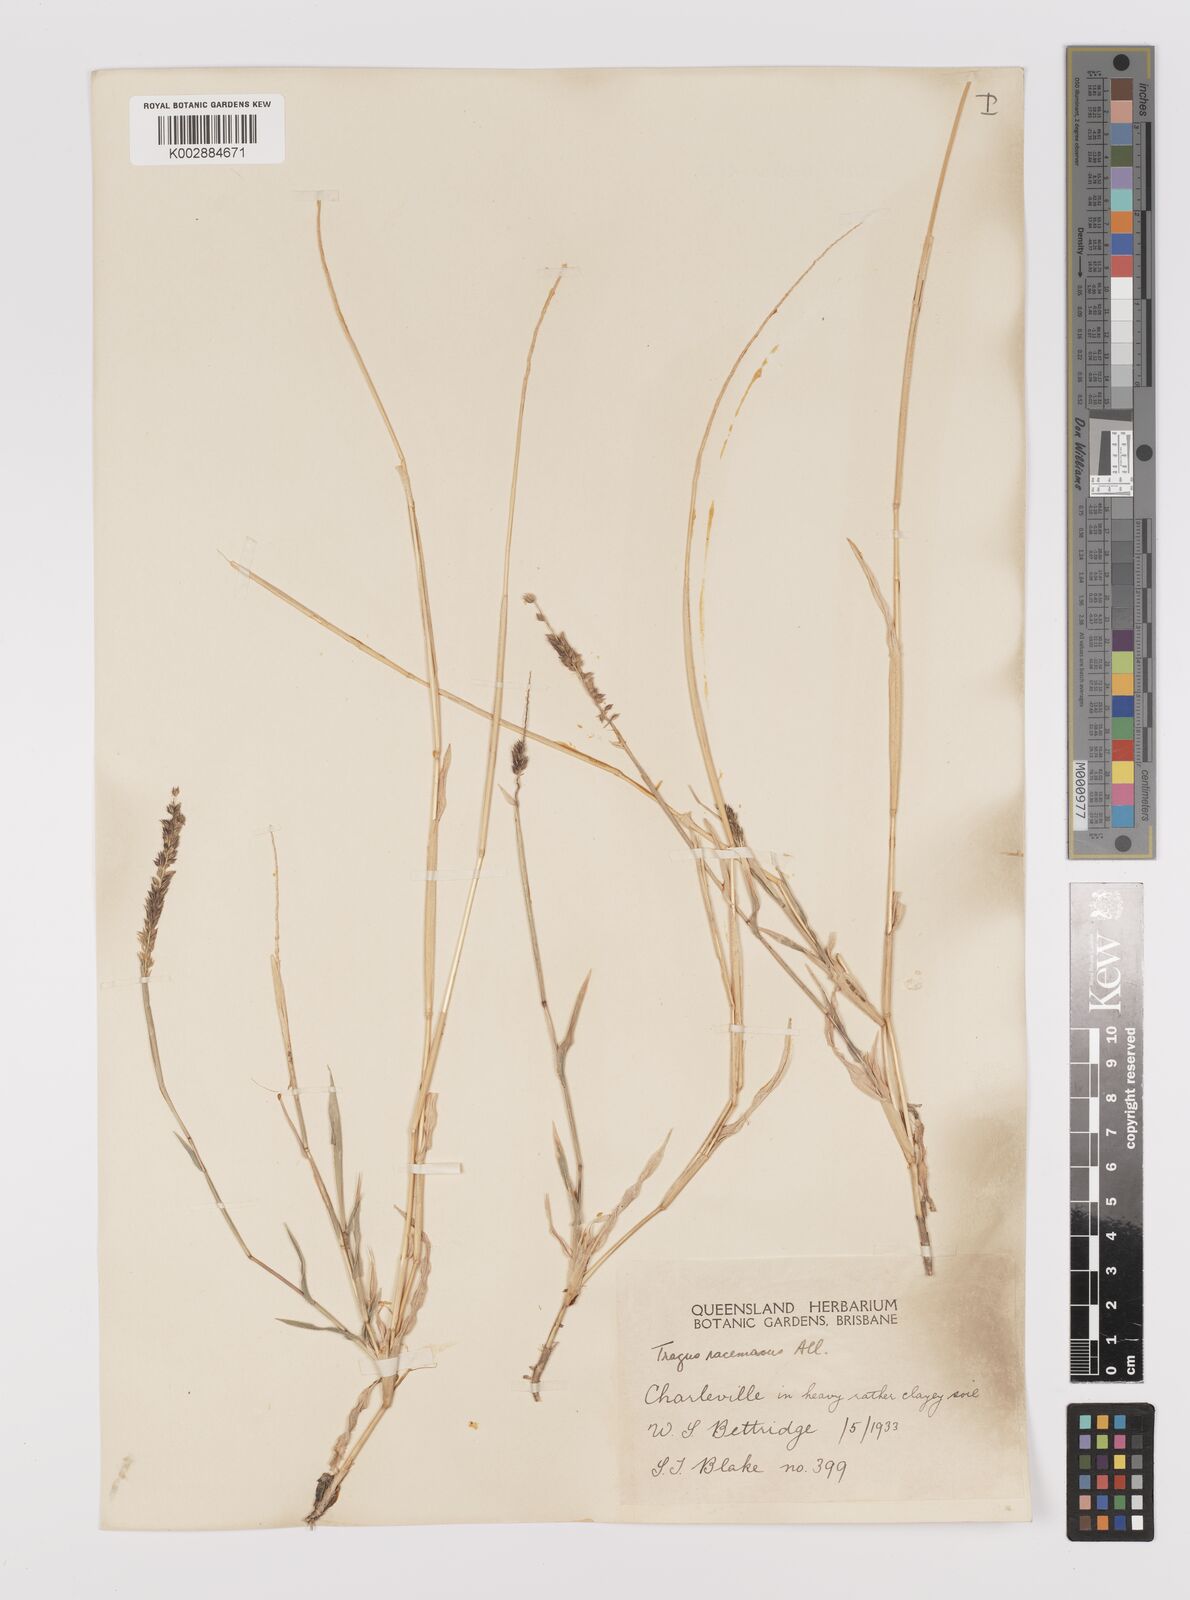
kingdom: Plantae
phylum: Tracheophyta
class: Liliopsida
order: Poales
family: Poaceae
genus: Tragus
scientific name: Tragus australianus
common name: Australian bur-grass
